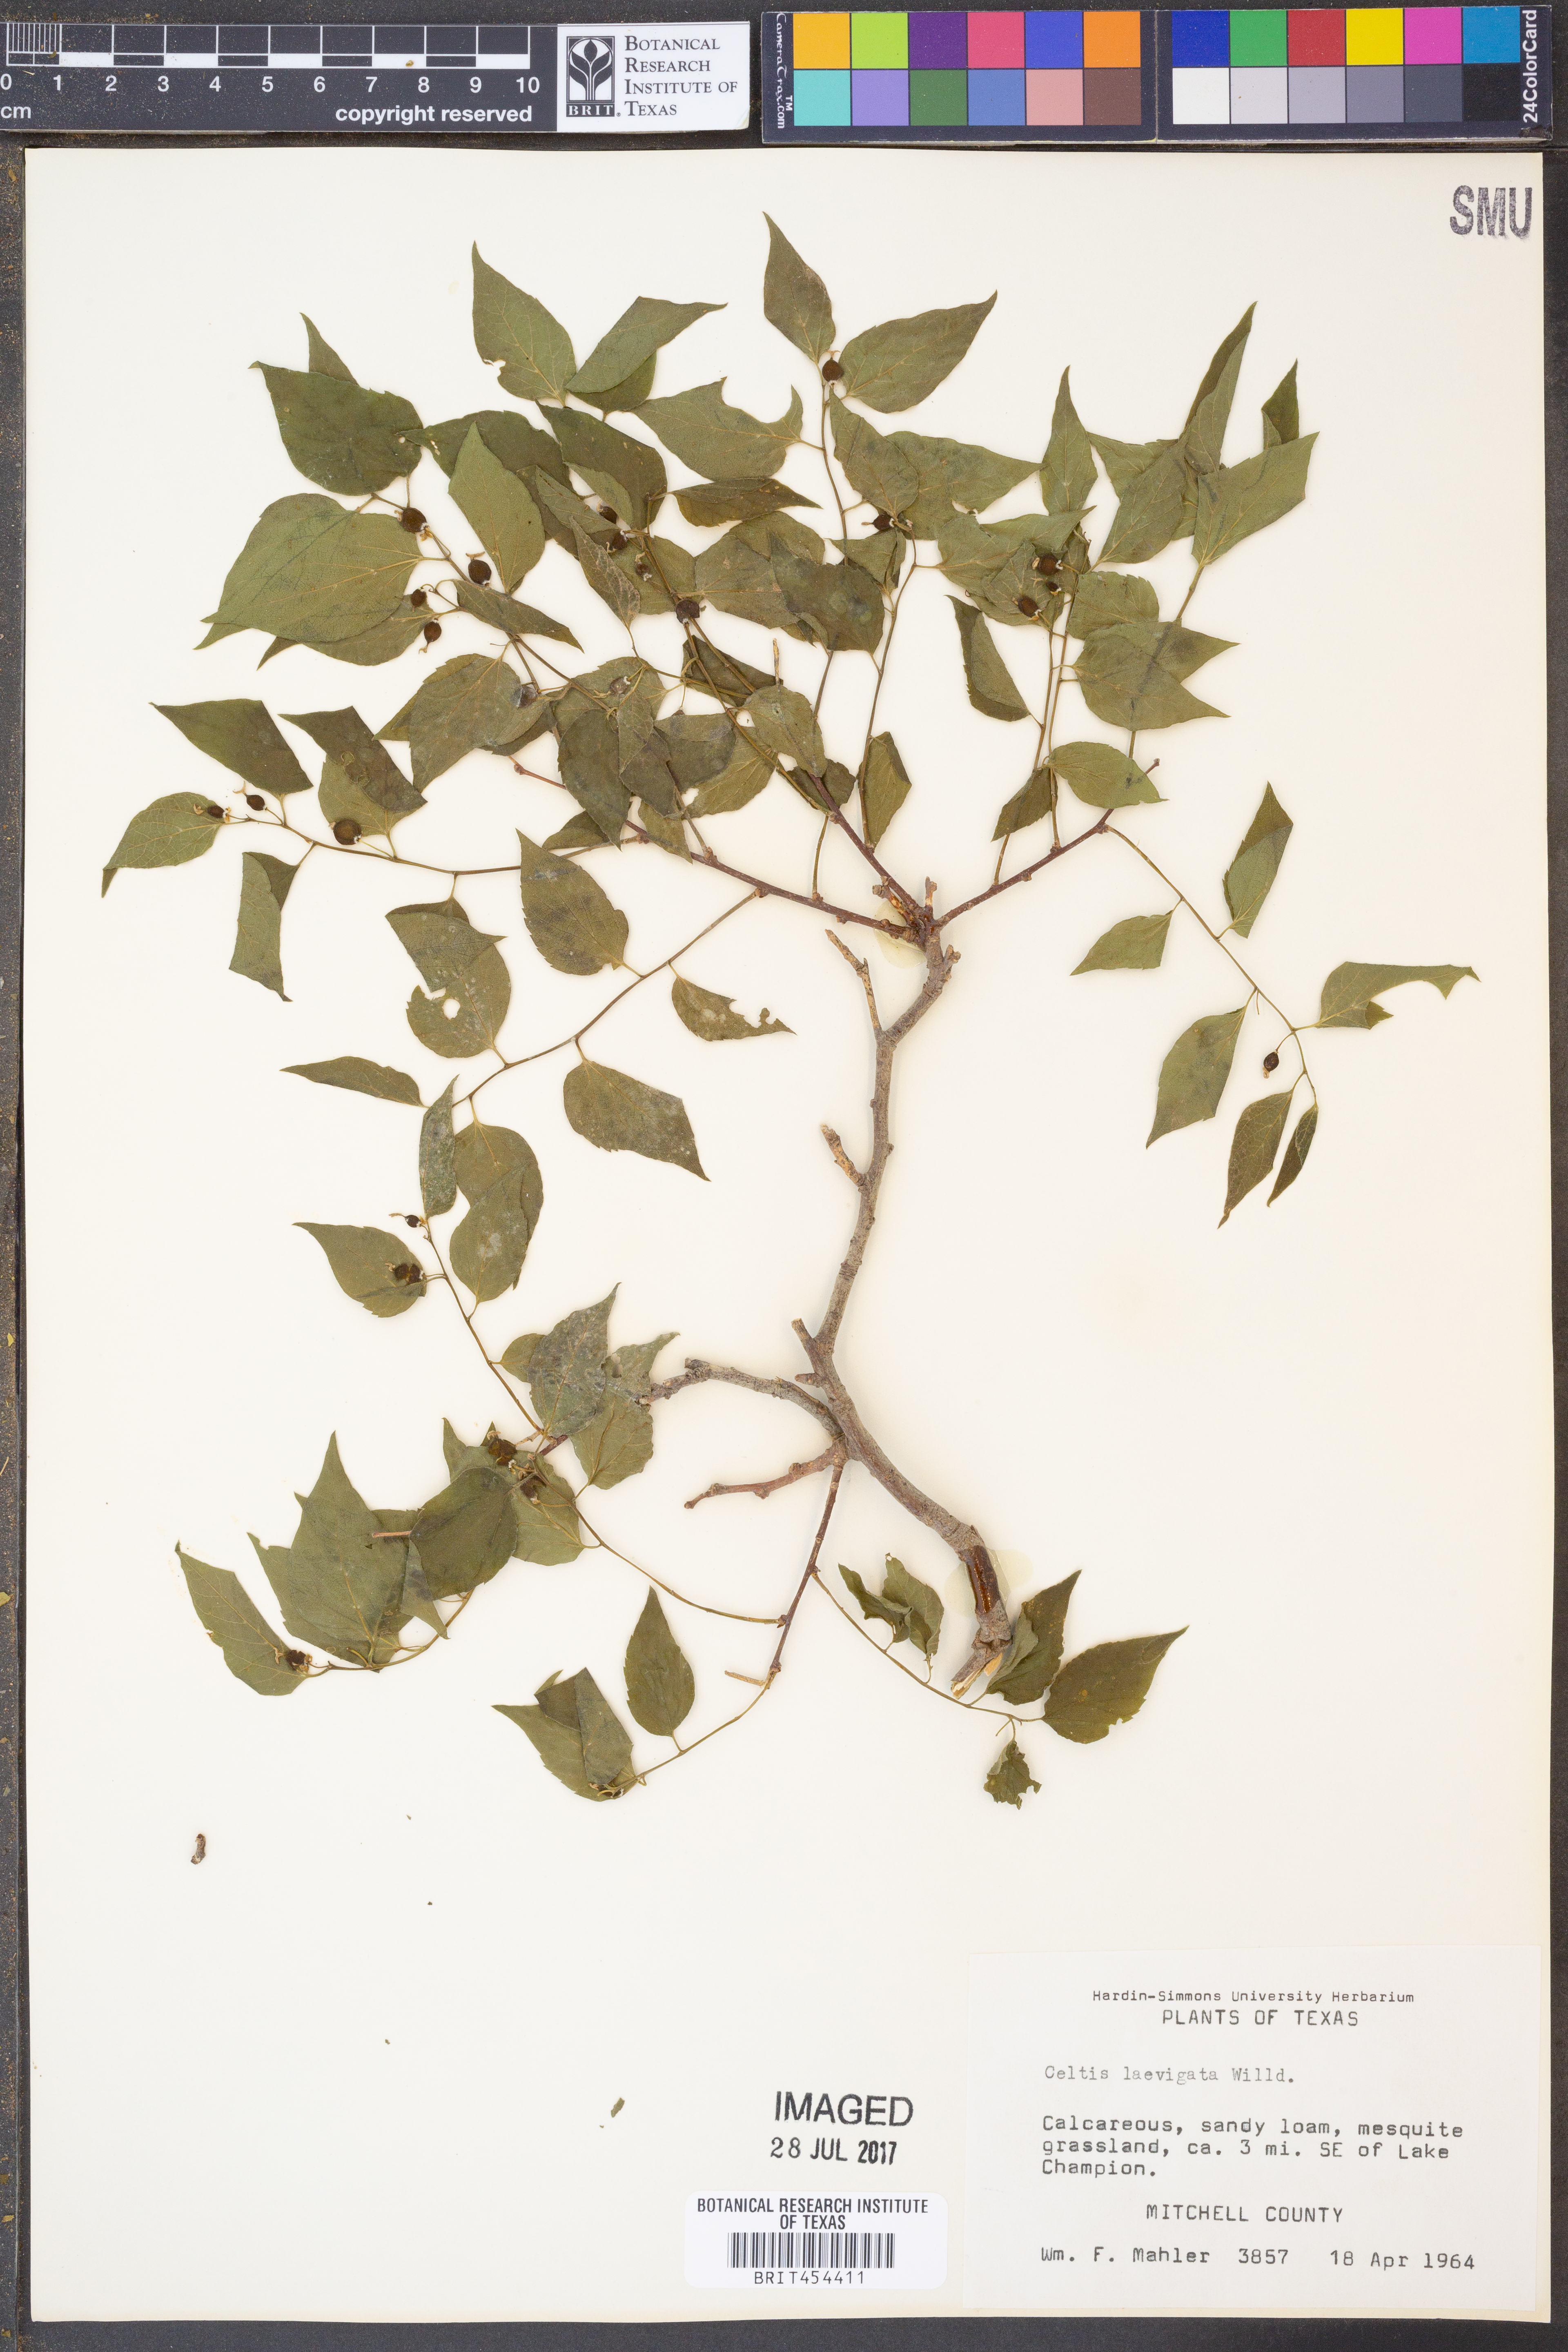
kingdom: Plantae
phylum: Tracheophyta
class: Magnoliopsida
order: Rosales
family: Cannabaceae
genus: Celtis
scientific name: Celtis laevigata
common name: Sugarberry
